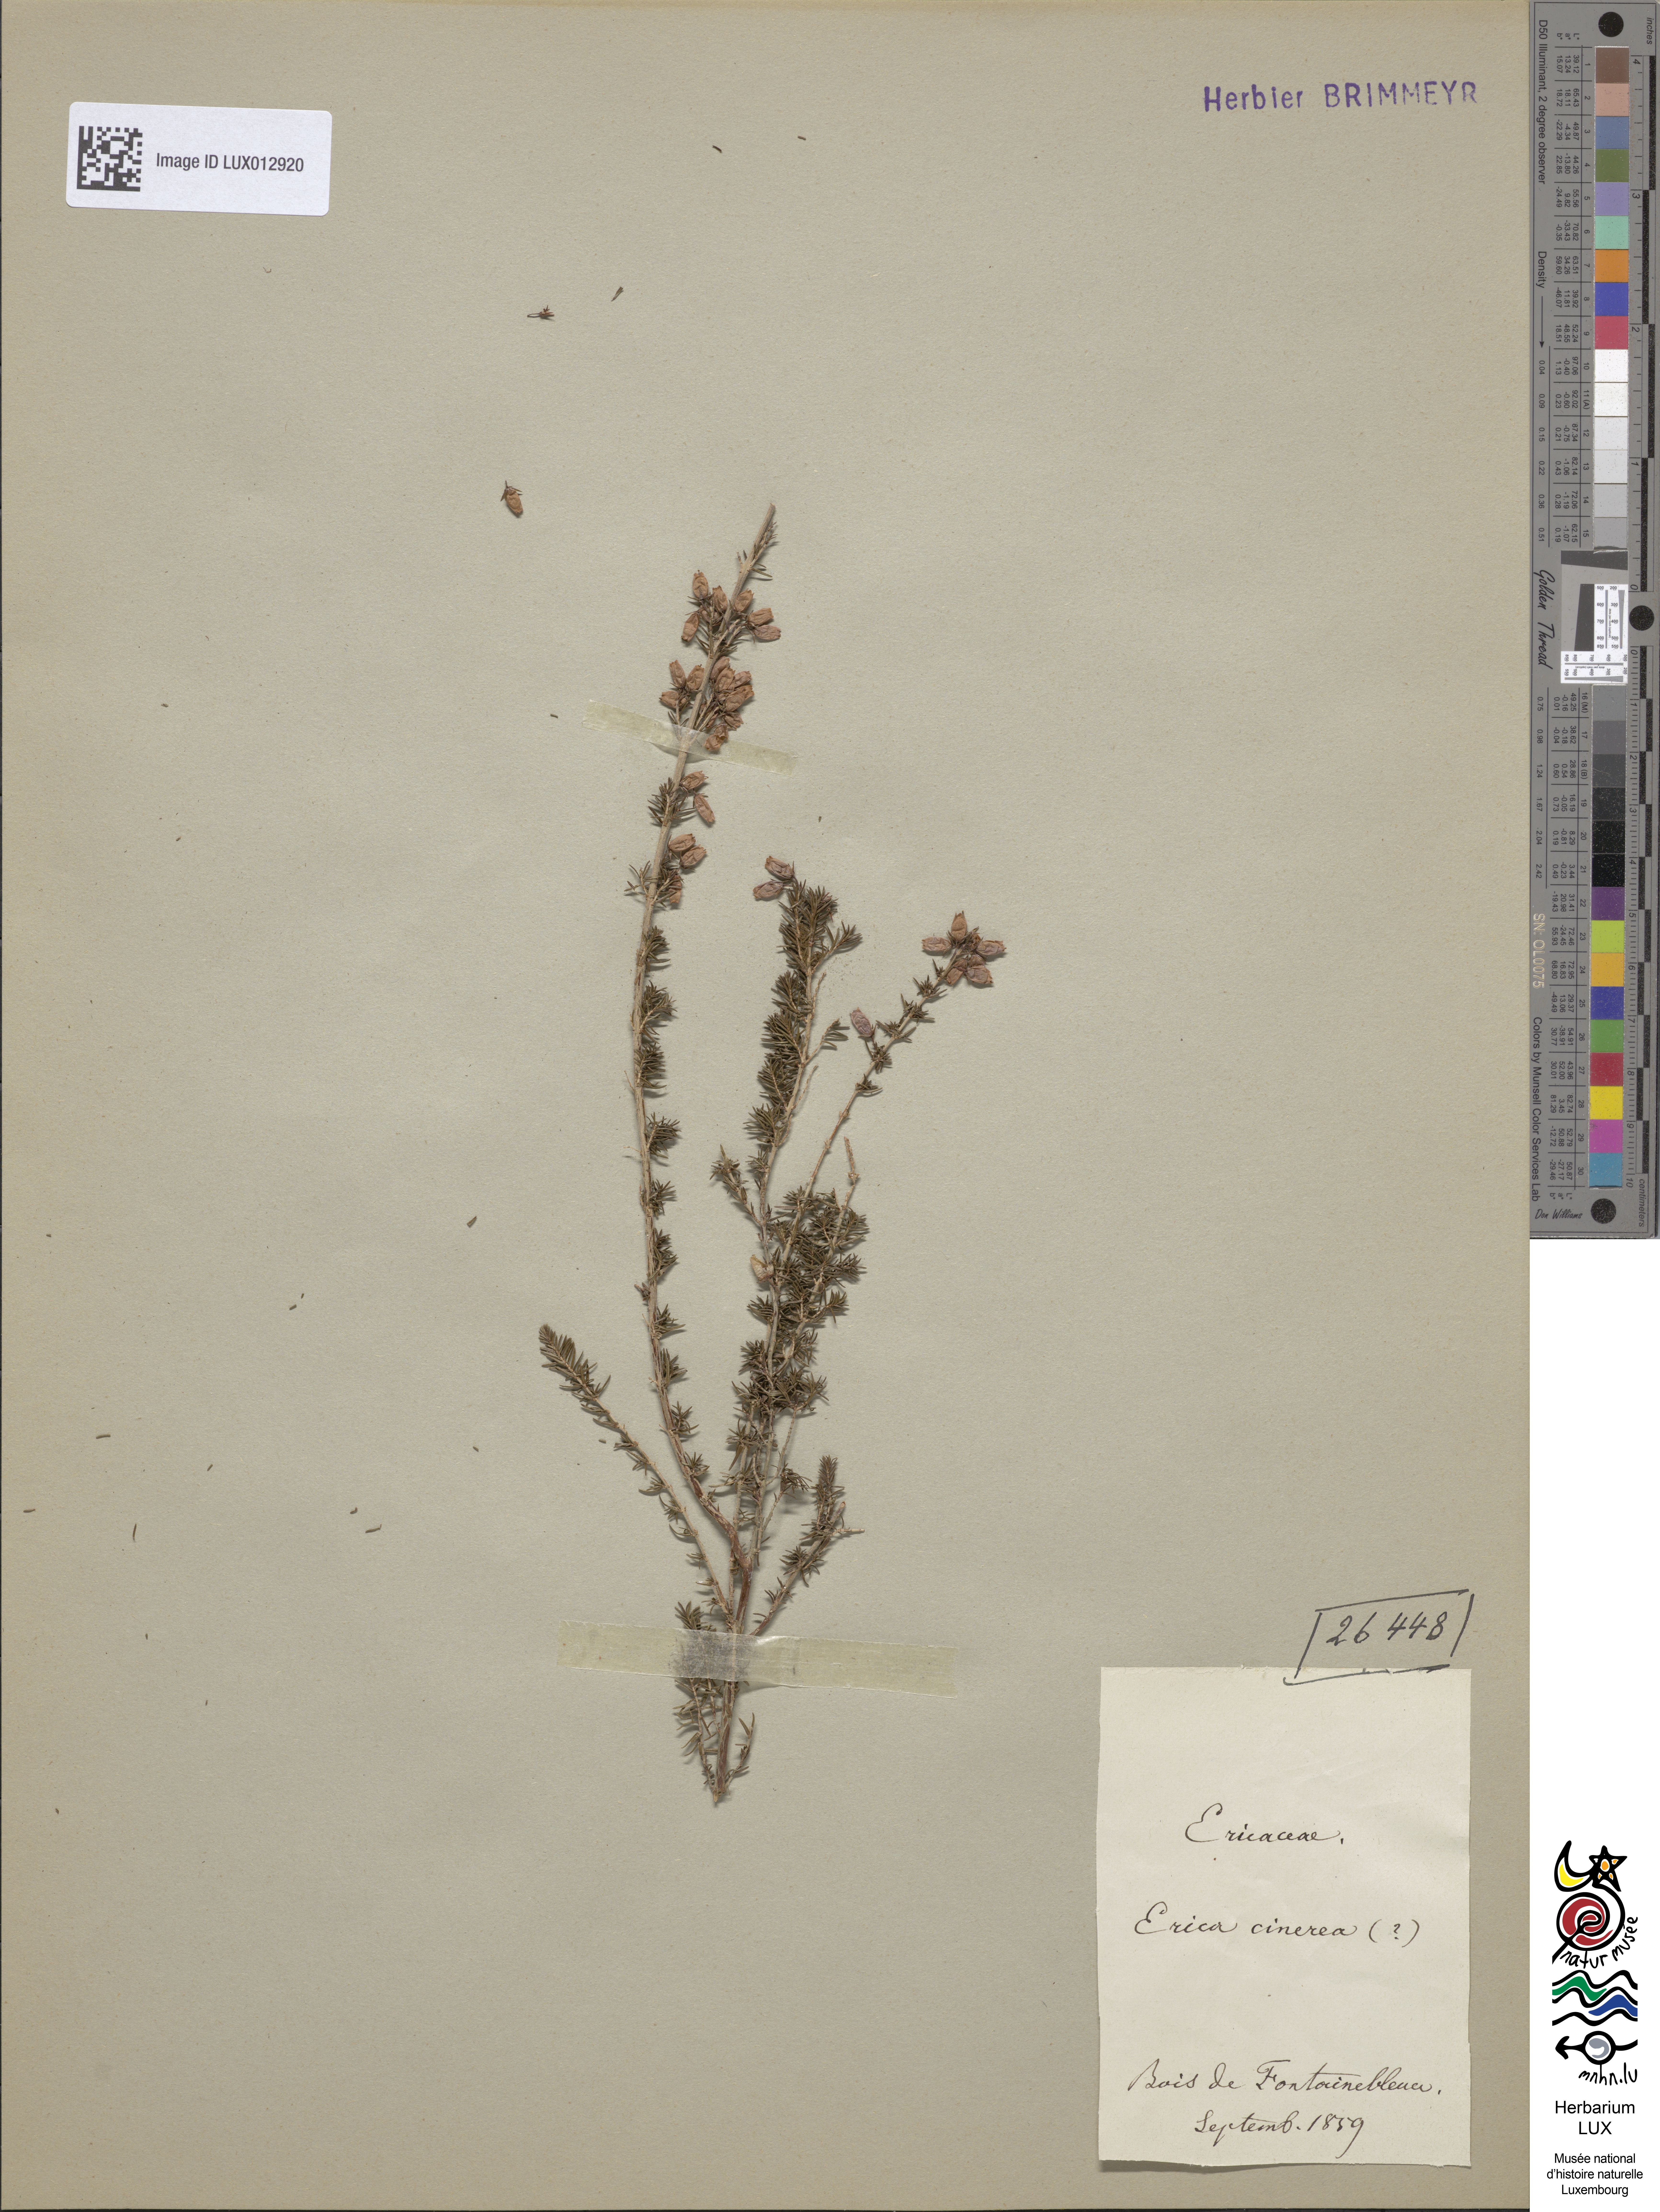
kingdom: Plantae
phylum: Tracheophyta
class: Magnoliopsida
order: Ericales
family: Ericaceae
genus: Erica
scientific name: Erica cinerea
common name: Bell heather
